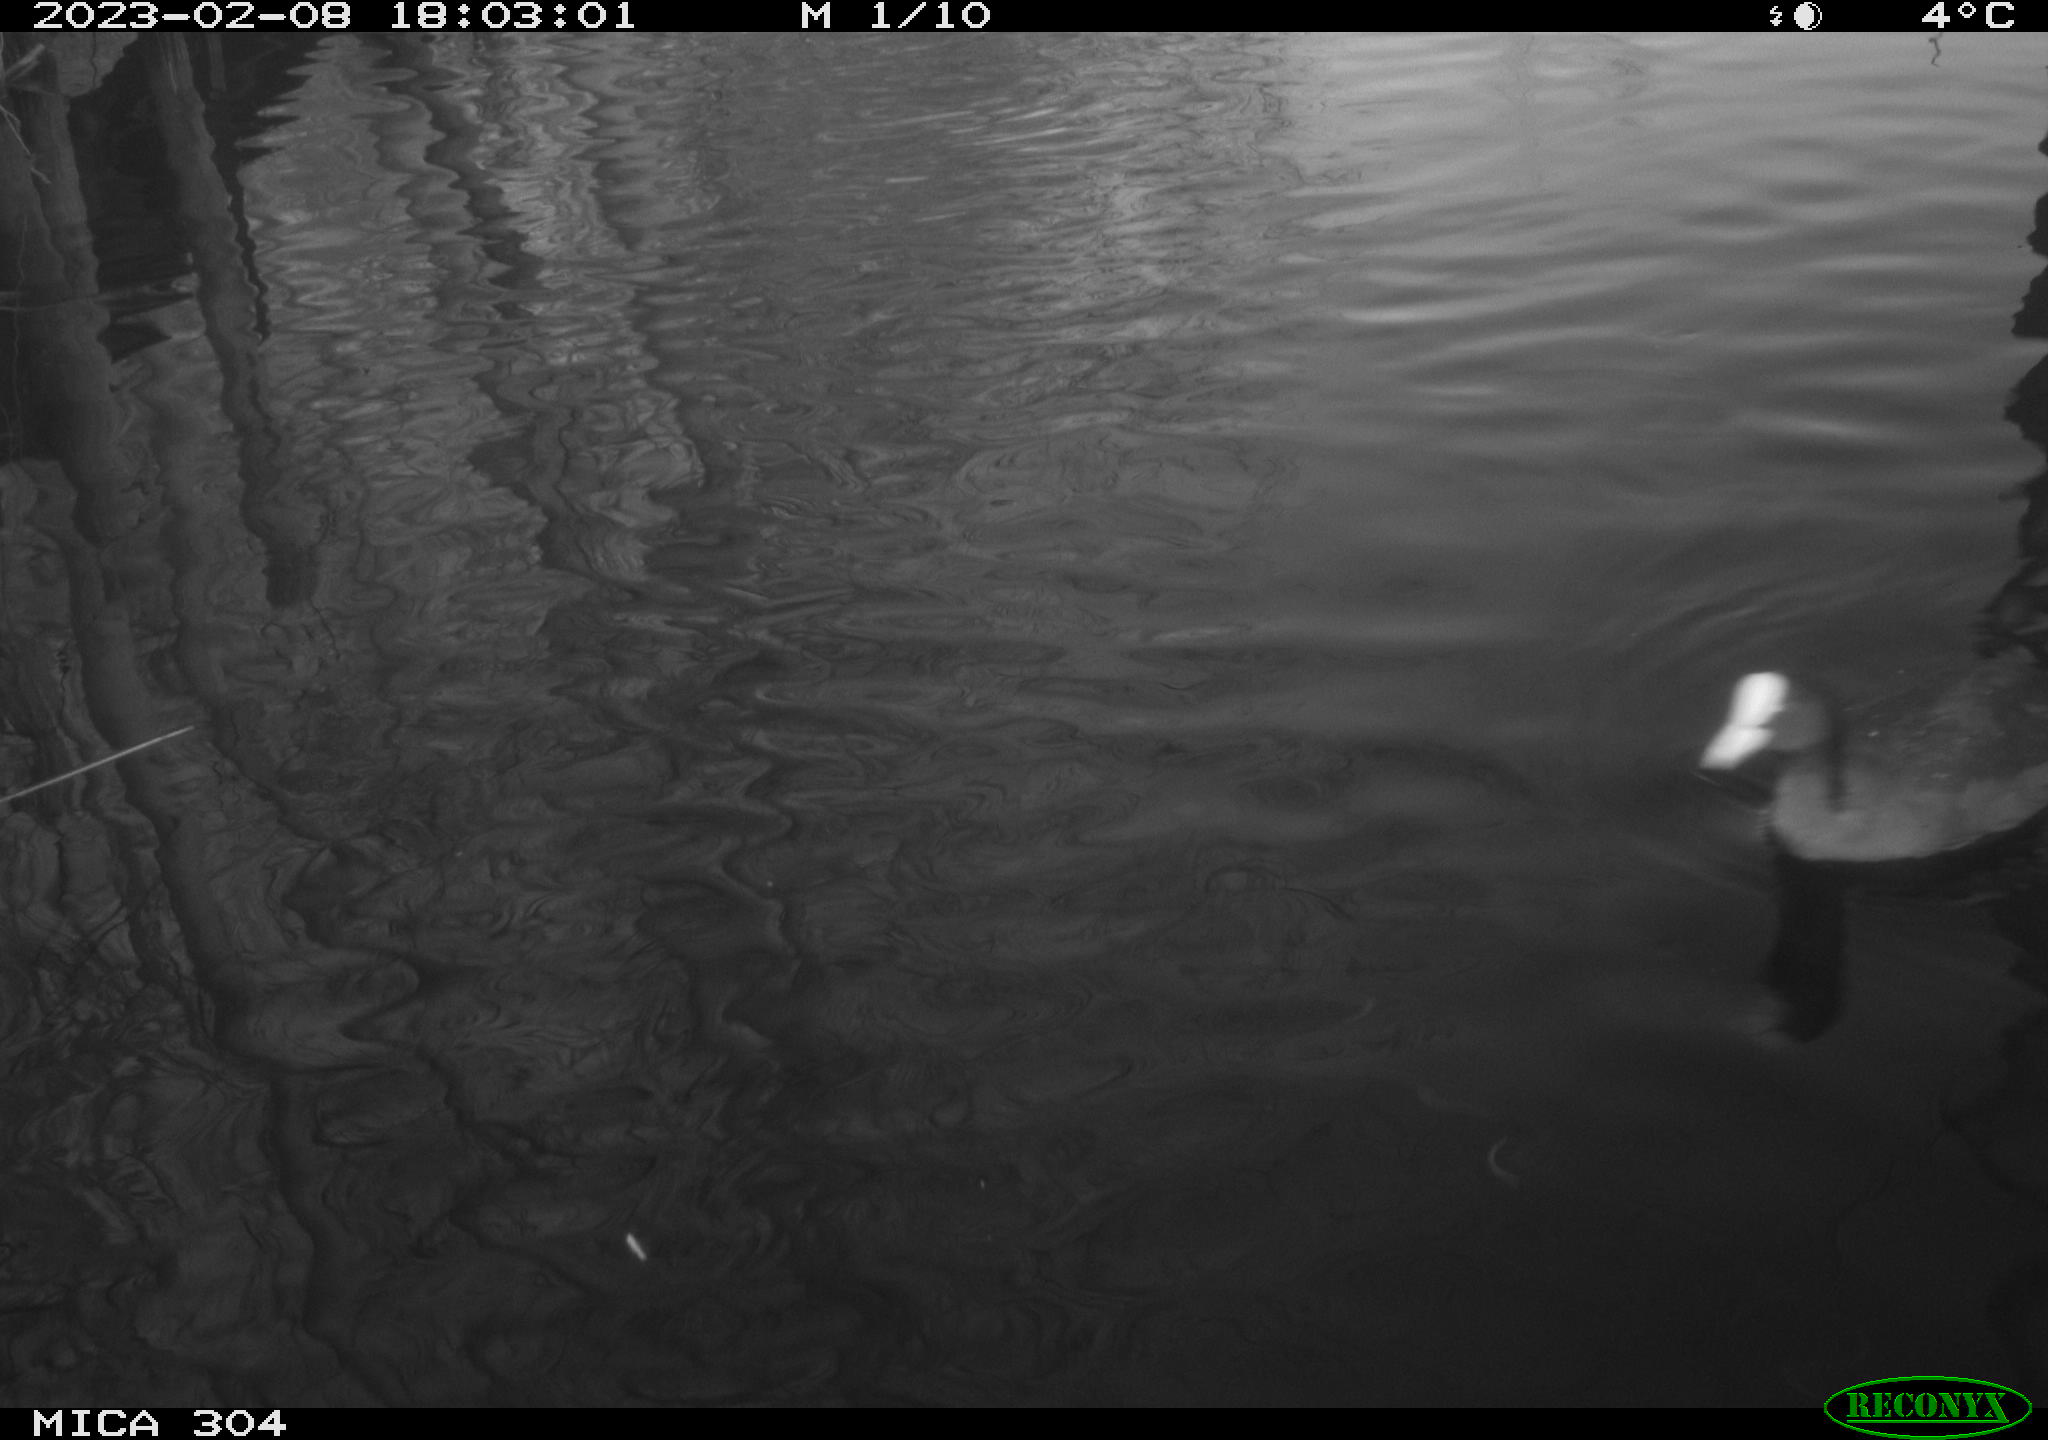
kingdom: Animalia
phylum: Chordata
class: Aves
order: Anseriformes
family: Anatidae
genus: Anas
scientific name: Anas
